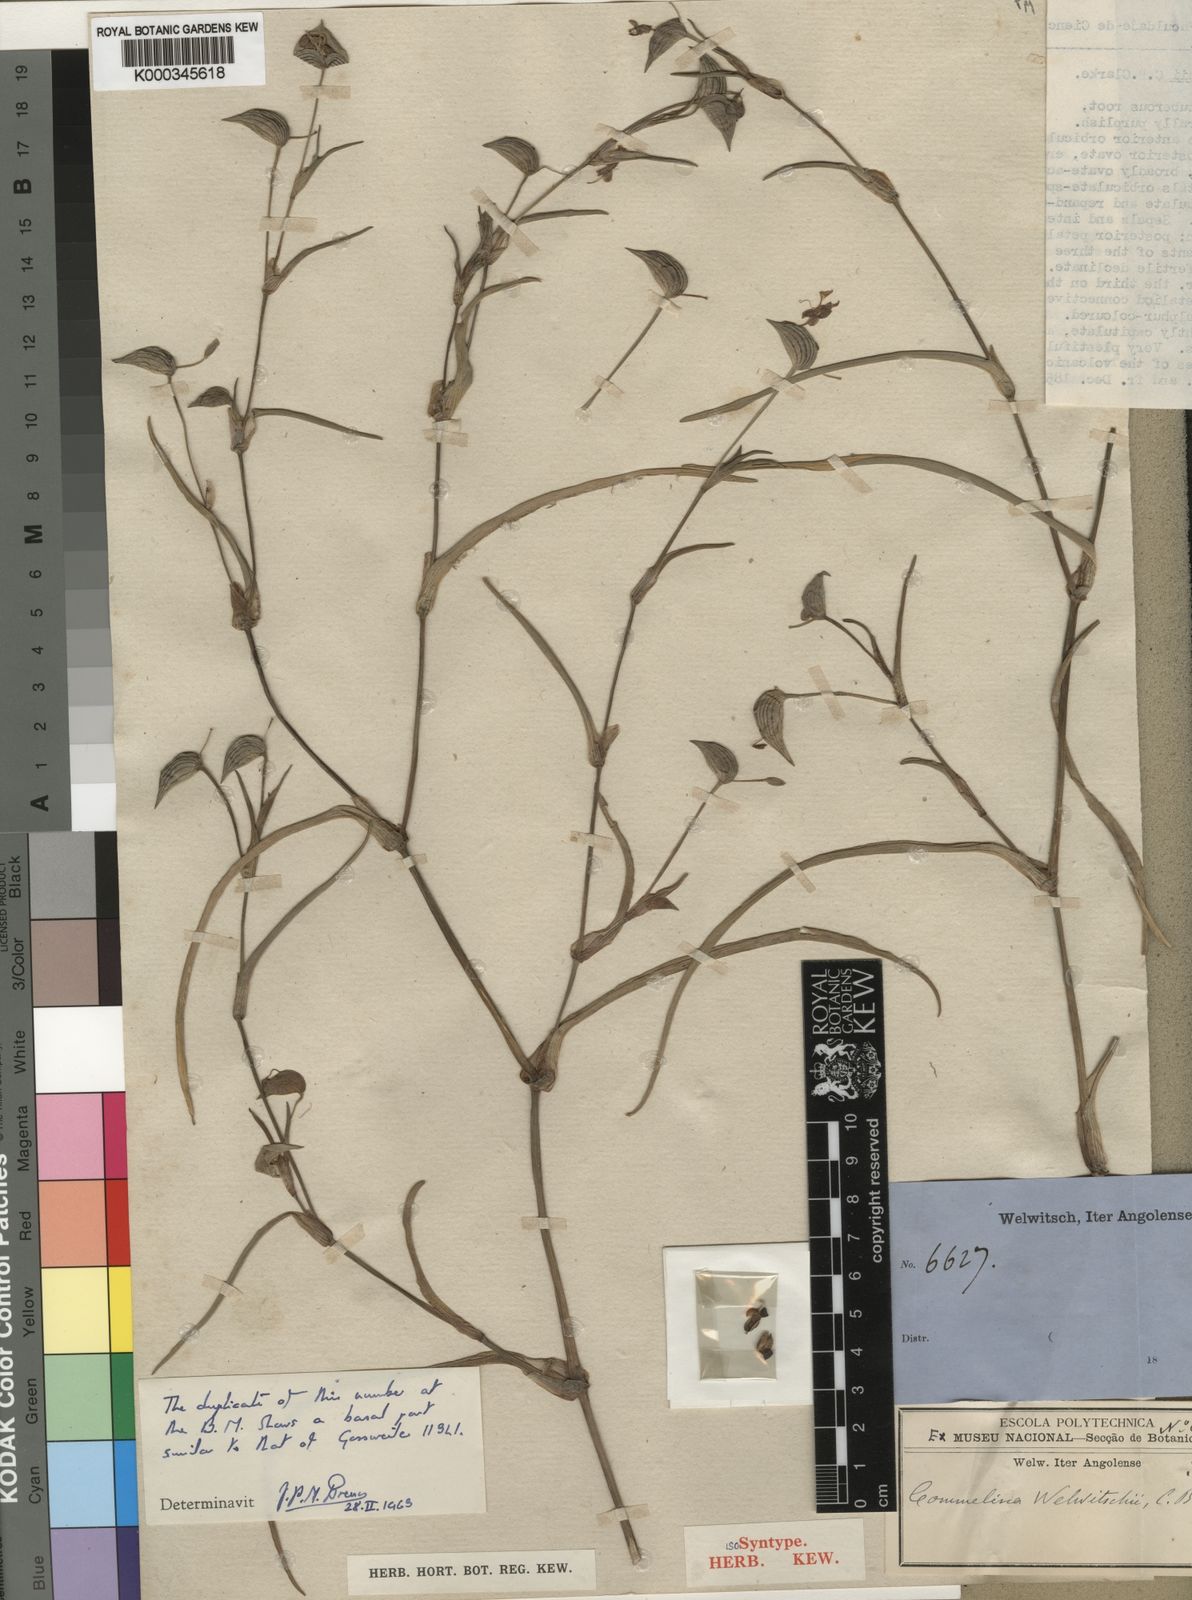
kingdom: Plantae
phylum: Tracheophyta
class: Liliopsida
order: Commelinales
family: Commelinaceae
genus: Commelina
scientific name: Commelina welwitschii
